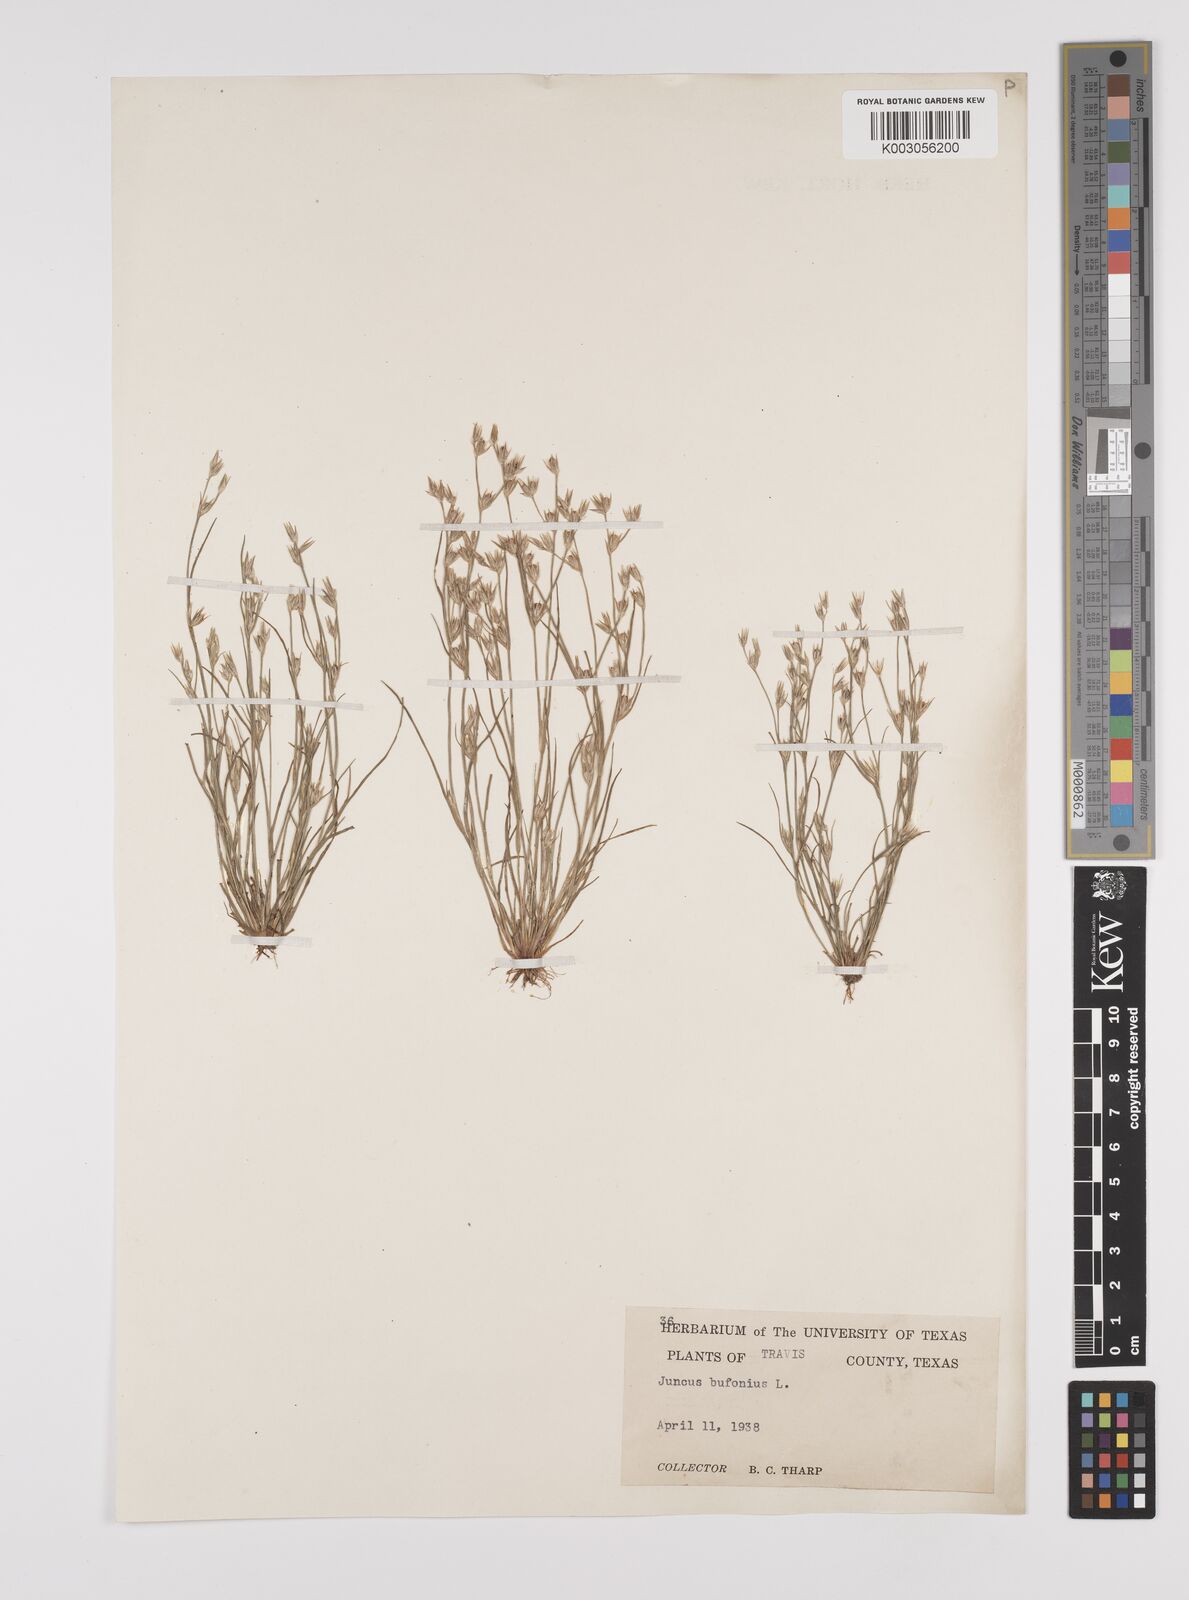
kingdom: Plantae
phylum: Tracheophyta
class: Liliopsida
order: Poales
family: Juncaceae
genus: Juncus
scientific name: Juncus bufonius
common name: Toad rush
